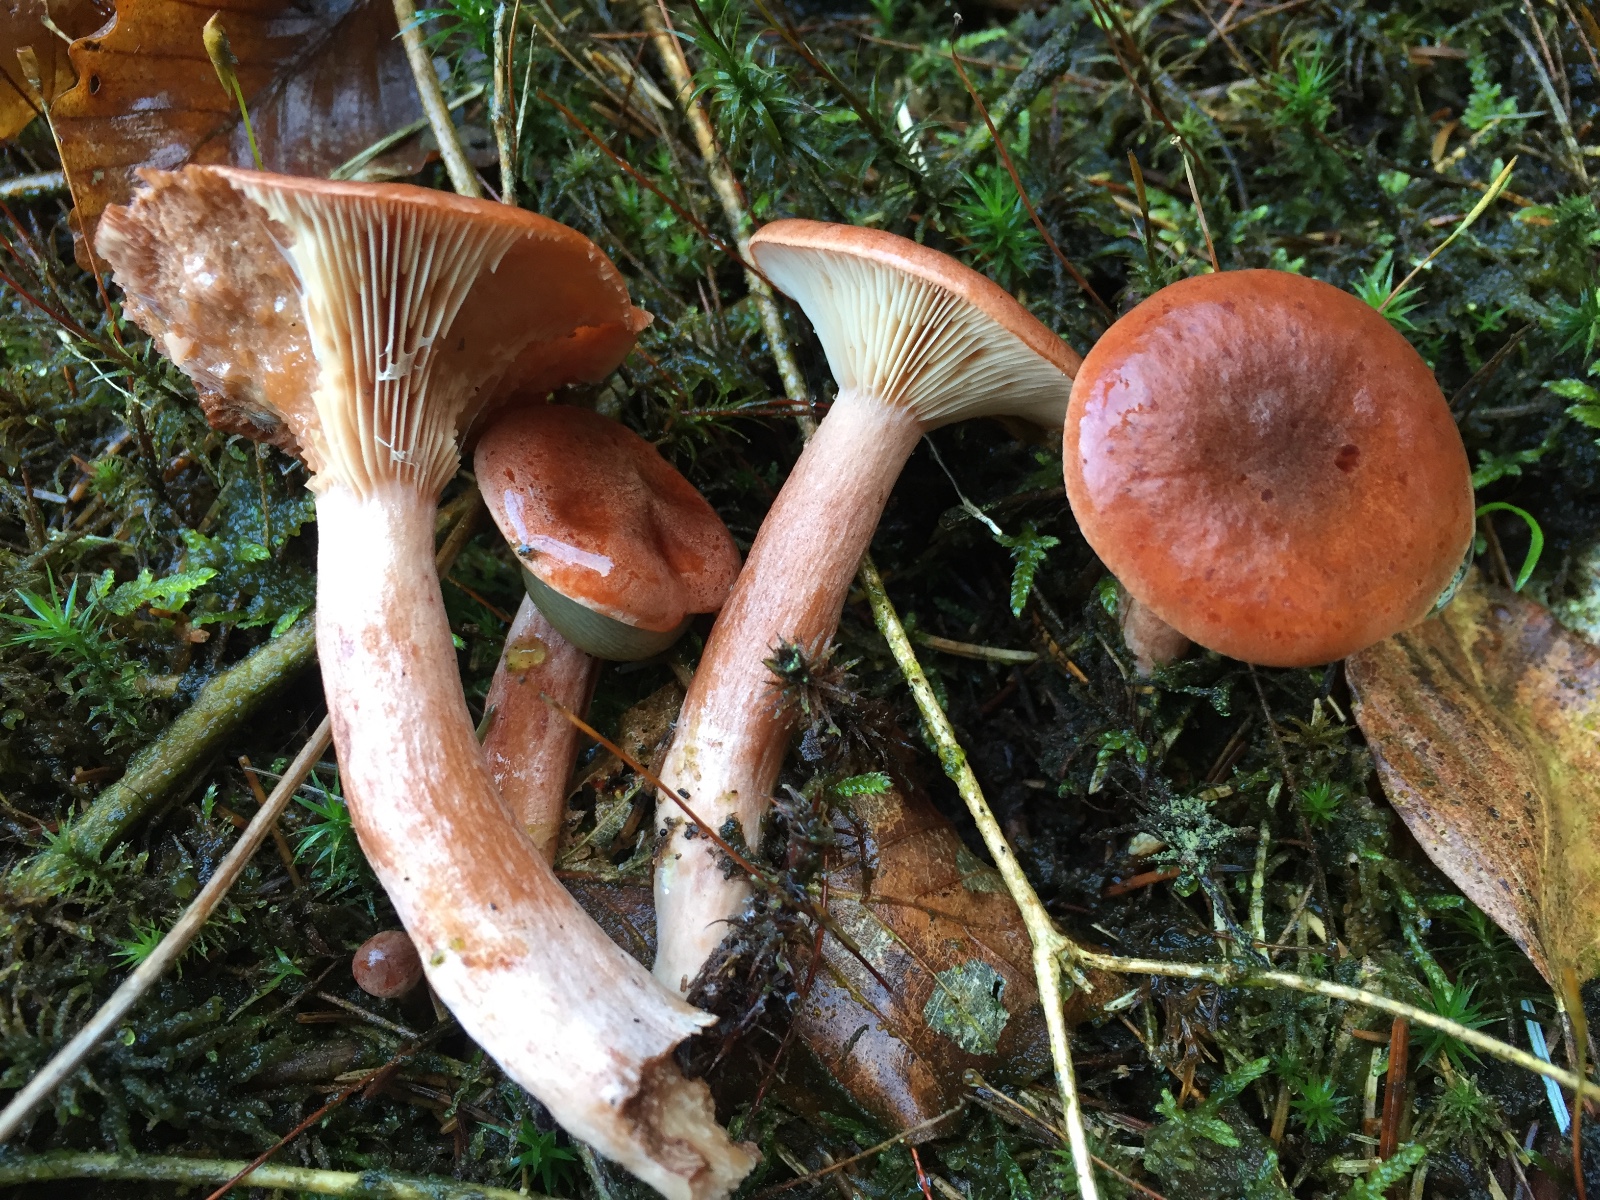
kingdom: Fungi
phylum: Basidiomycota
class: Agaricomycetes
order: Russulales
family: Russulaceae
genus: Lactarius
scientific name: Lactarius rufus
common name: rødbrun mælkehat
